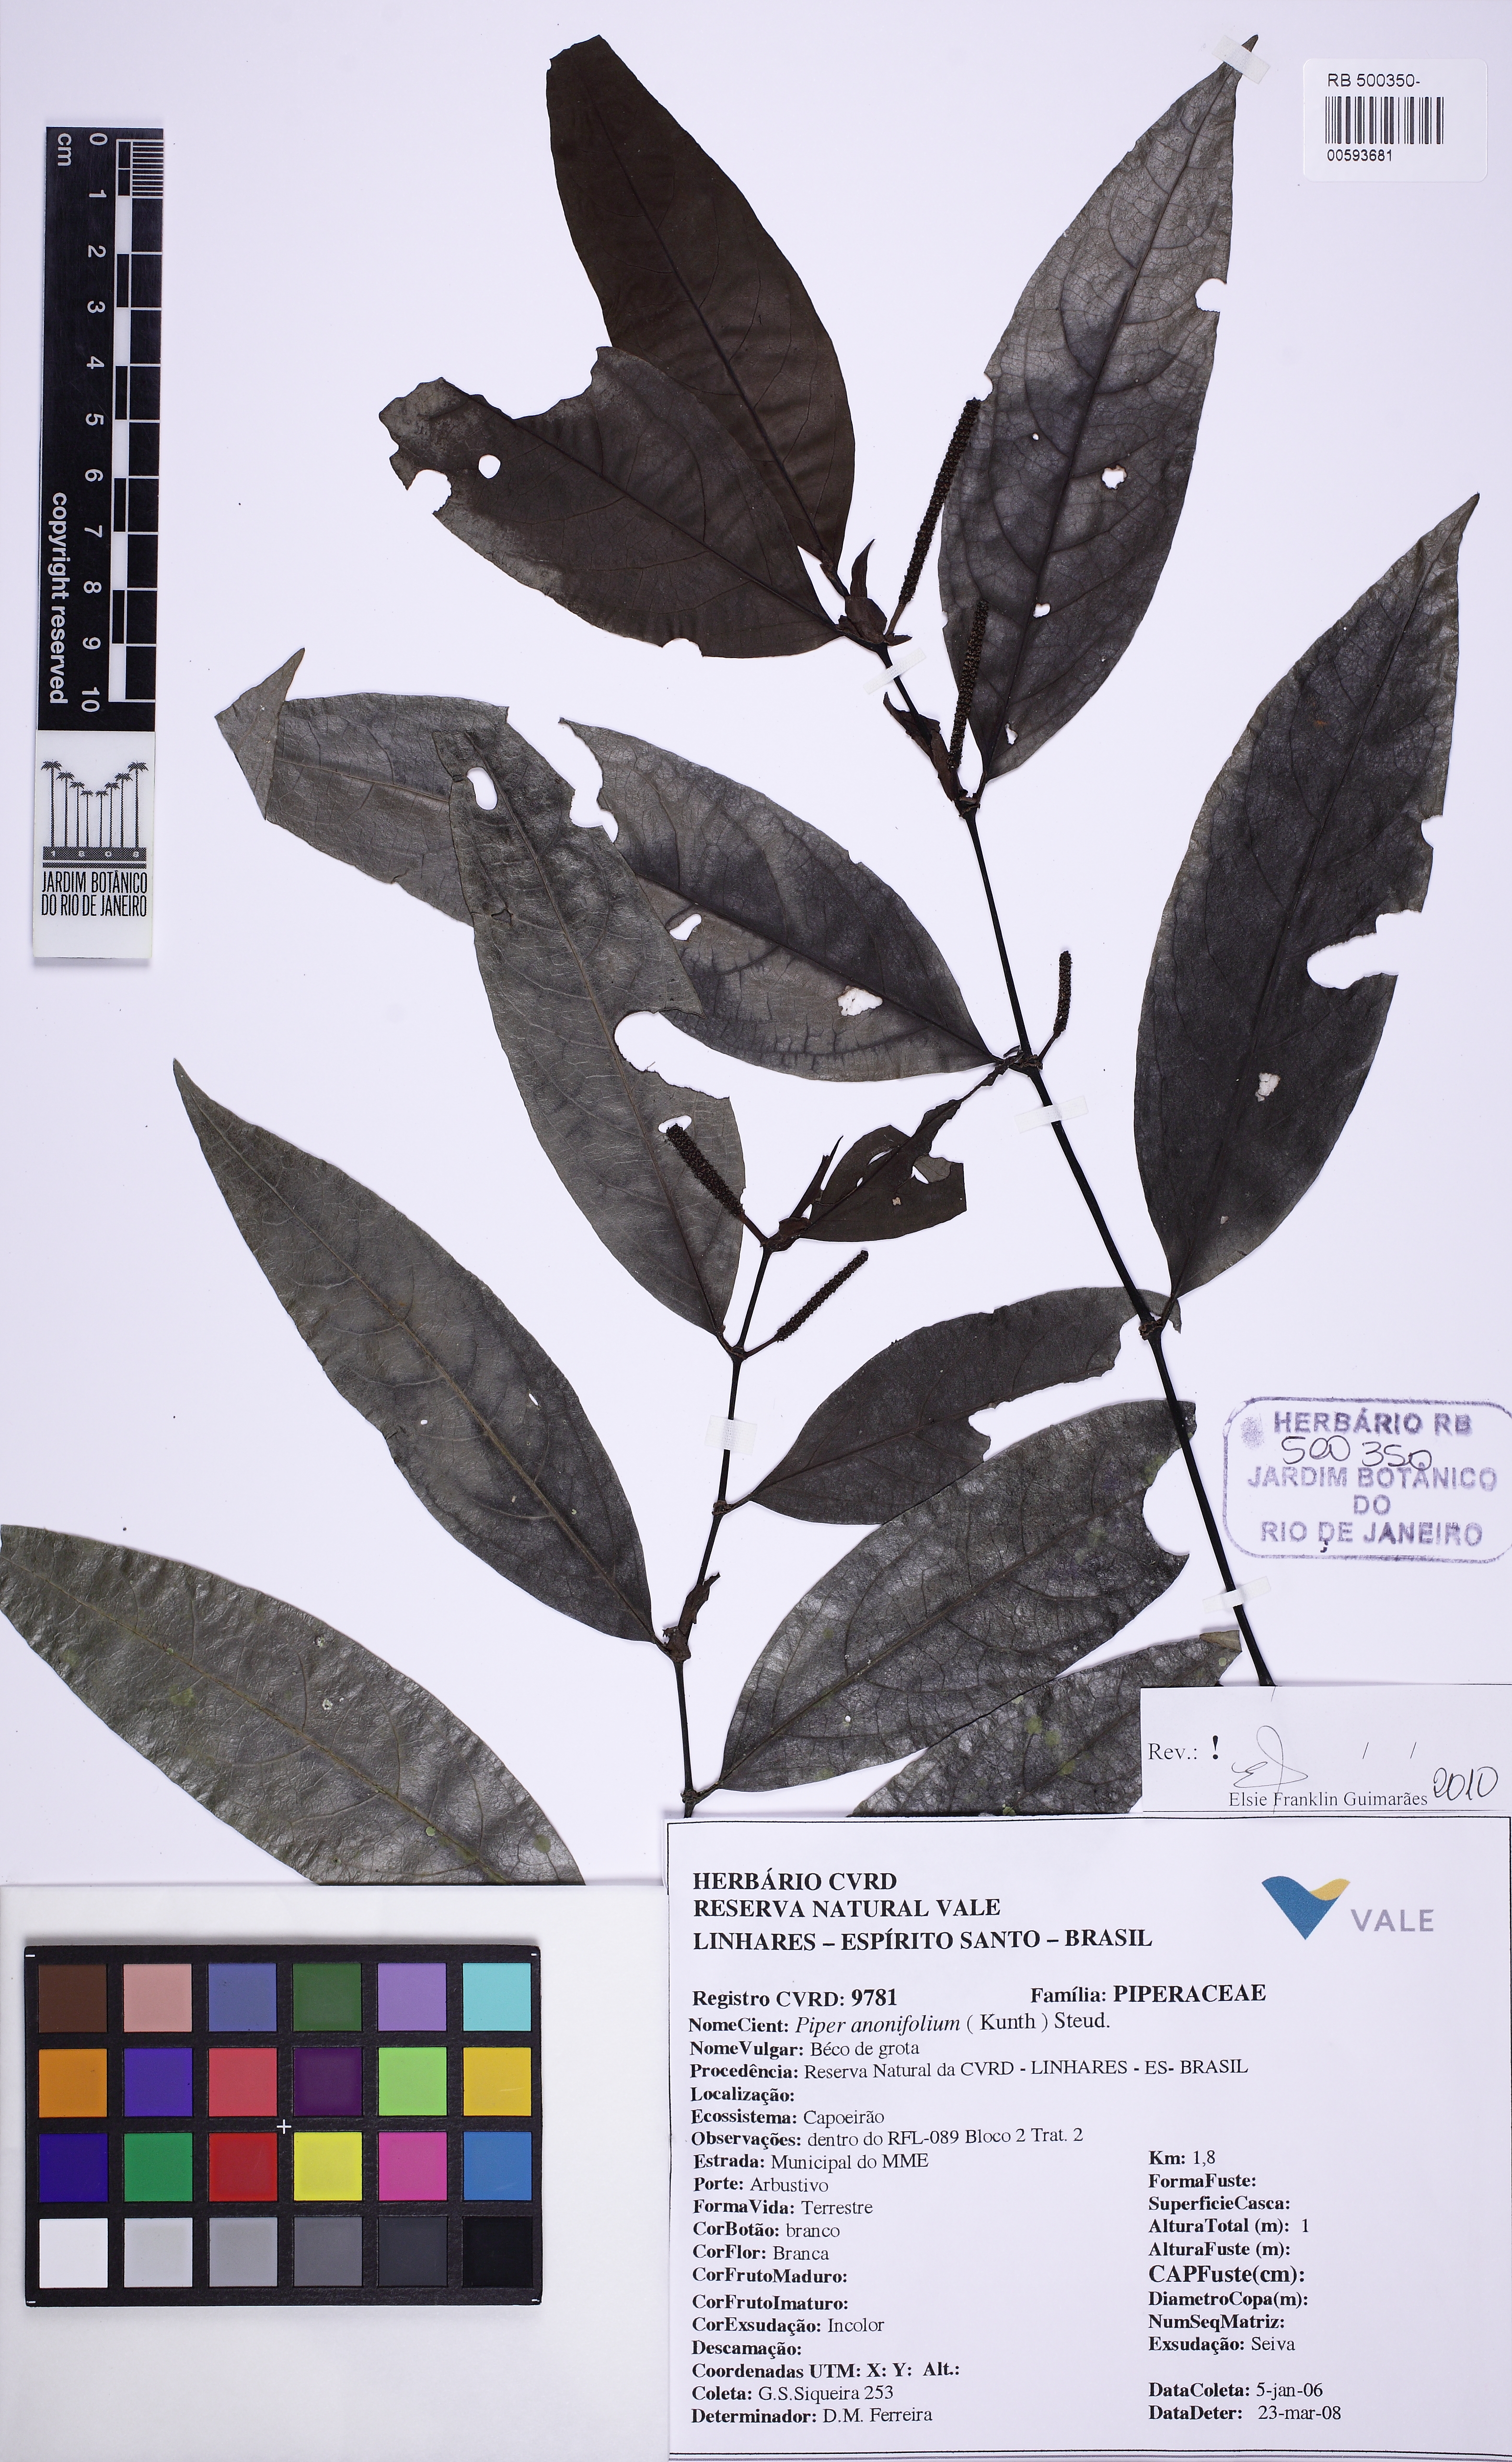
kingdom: Plantae
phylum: Tracheophyta
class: Magnoliopsida
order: Piperales
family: Piperaceae
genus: Piper
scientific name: Piper anonifolium
